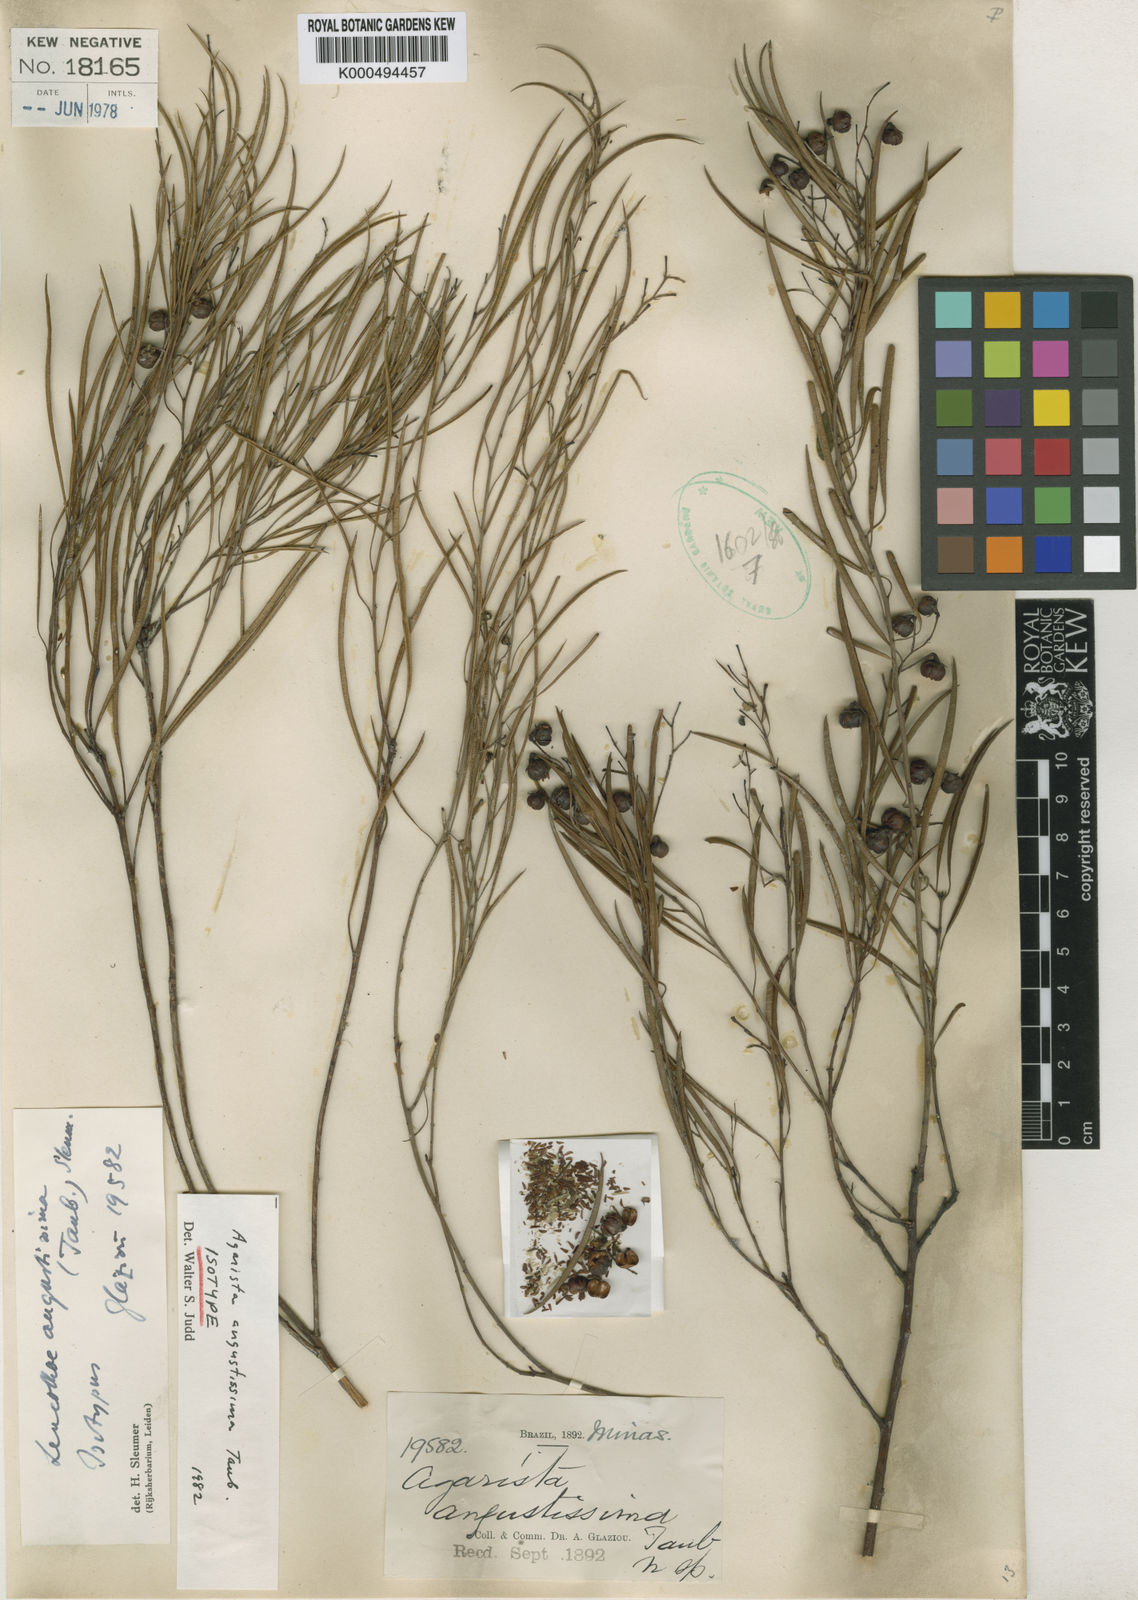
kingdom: Plantae
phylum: Tracheophyta
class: Magnoliopsida
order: Ericales
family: Ericaceae
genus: Agarista
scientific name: Agarista angustissima
